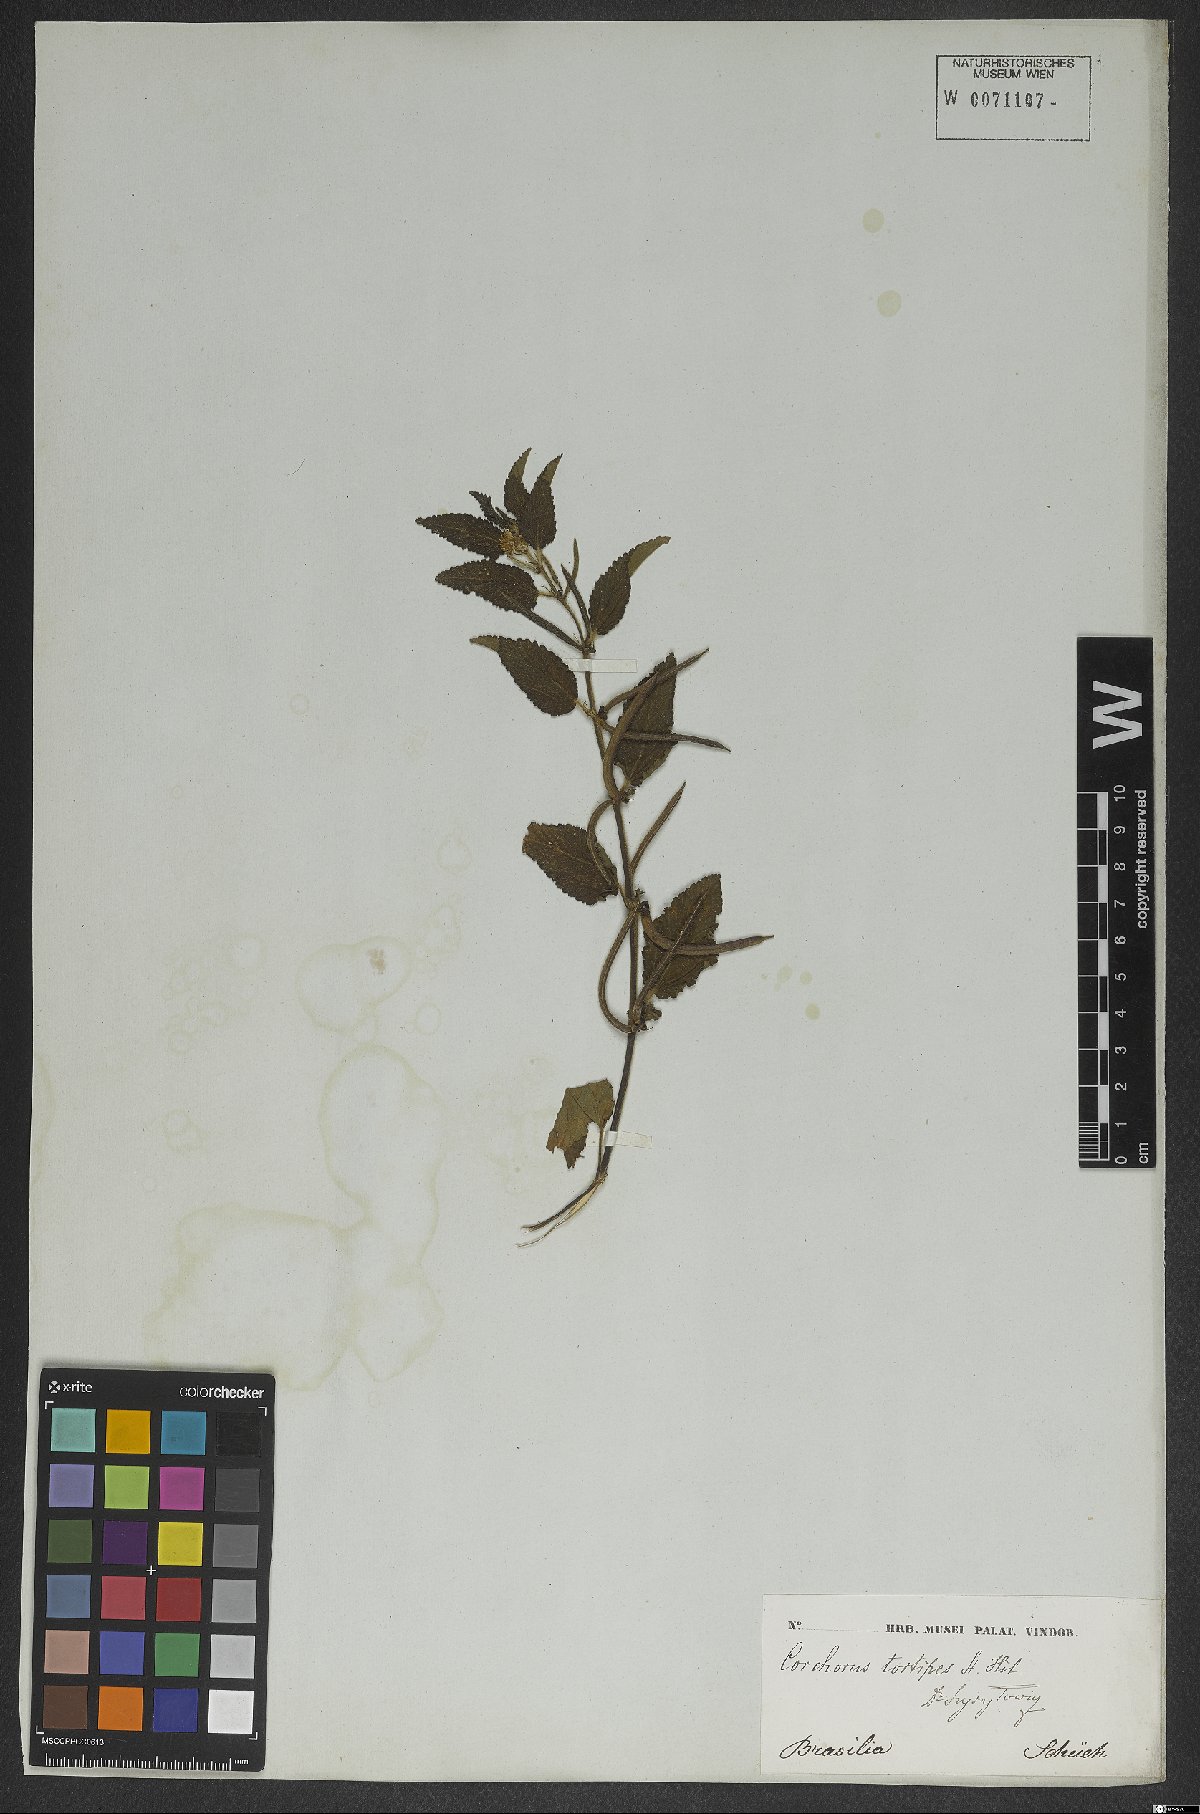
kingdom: Plantae
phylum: Tracheophyta
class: Magnoliopsida
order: Malvales
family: Malvaceae
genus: Corchorus
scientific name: Corchorus hirtus
